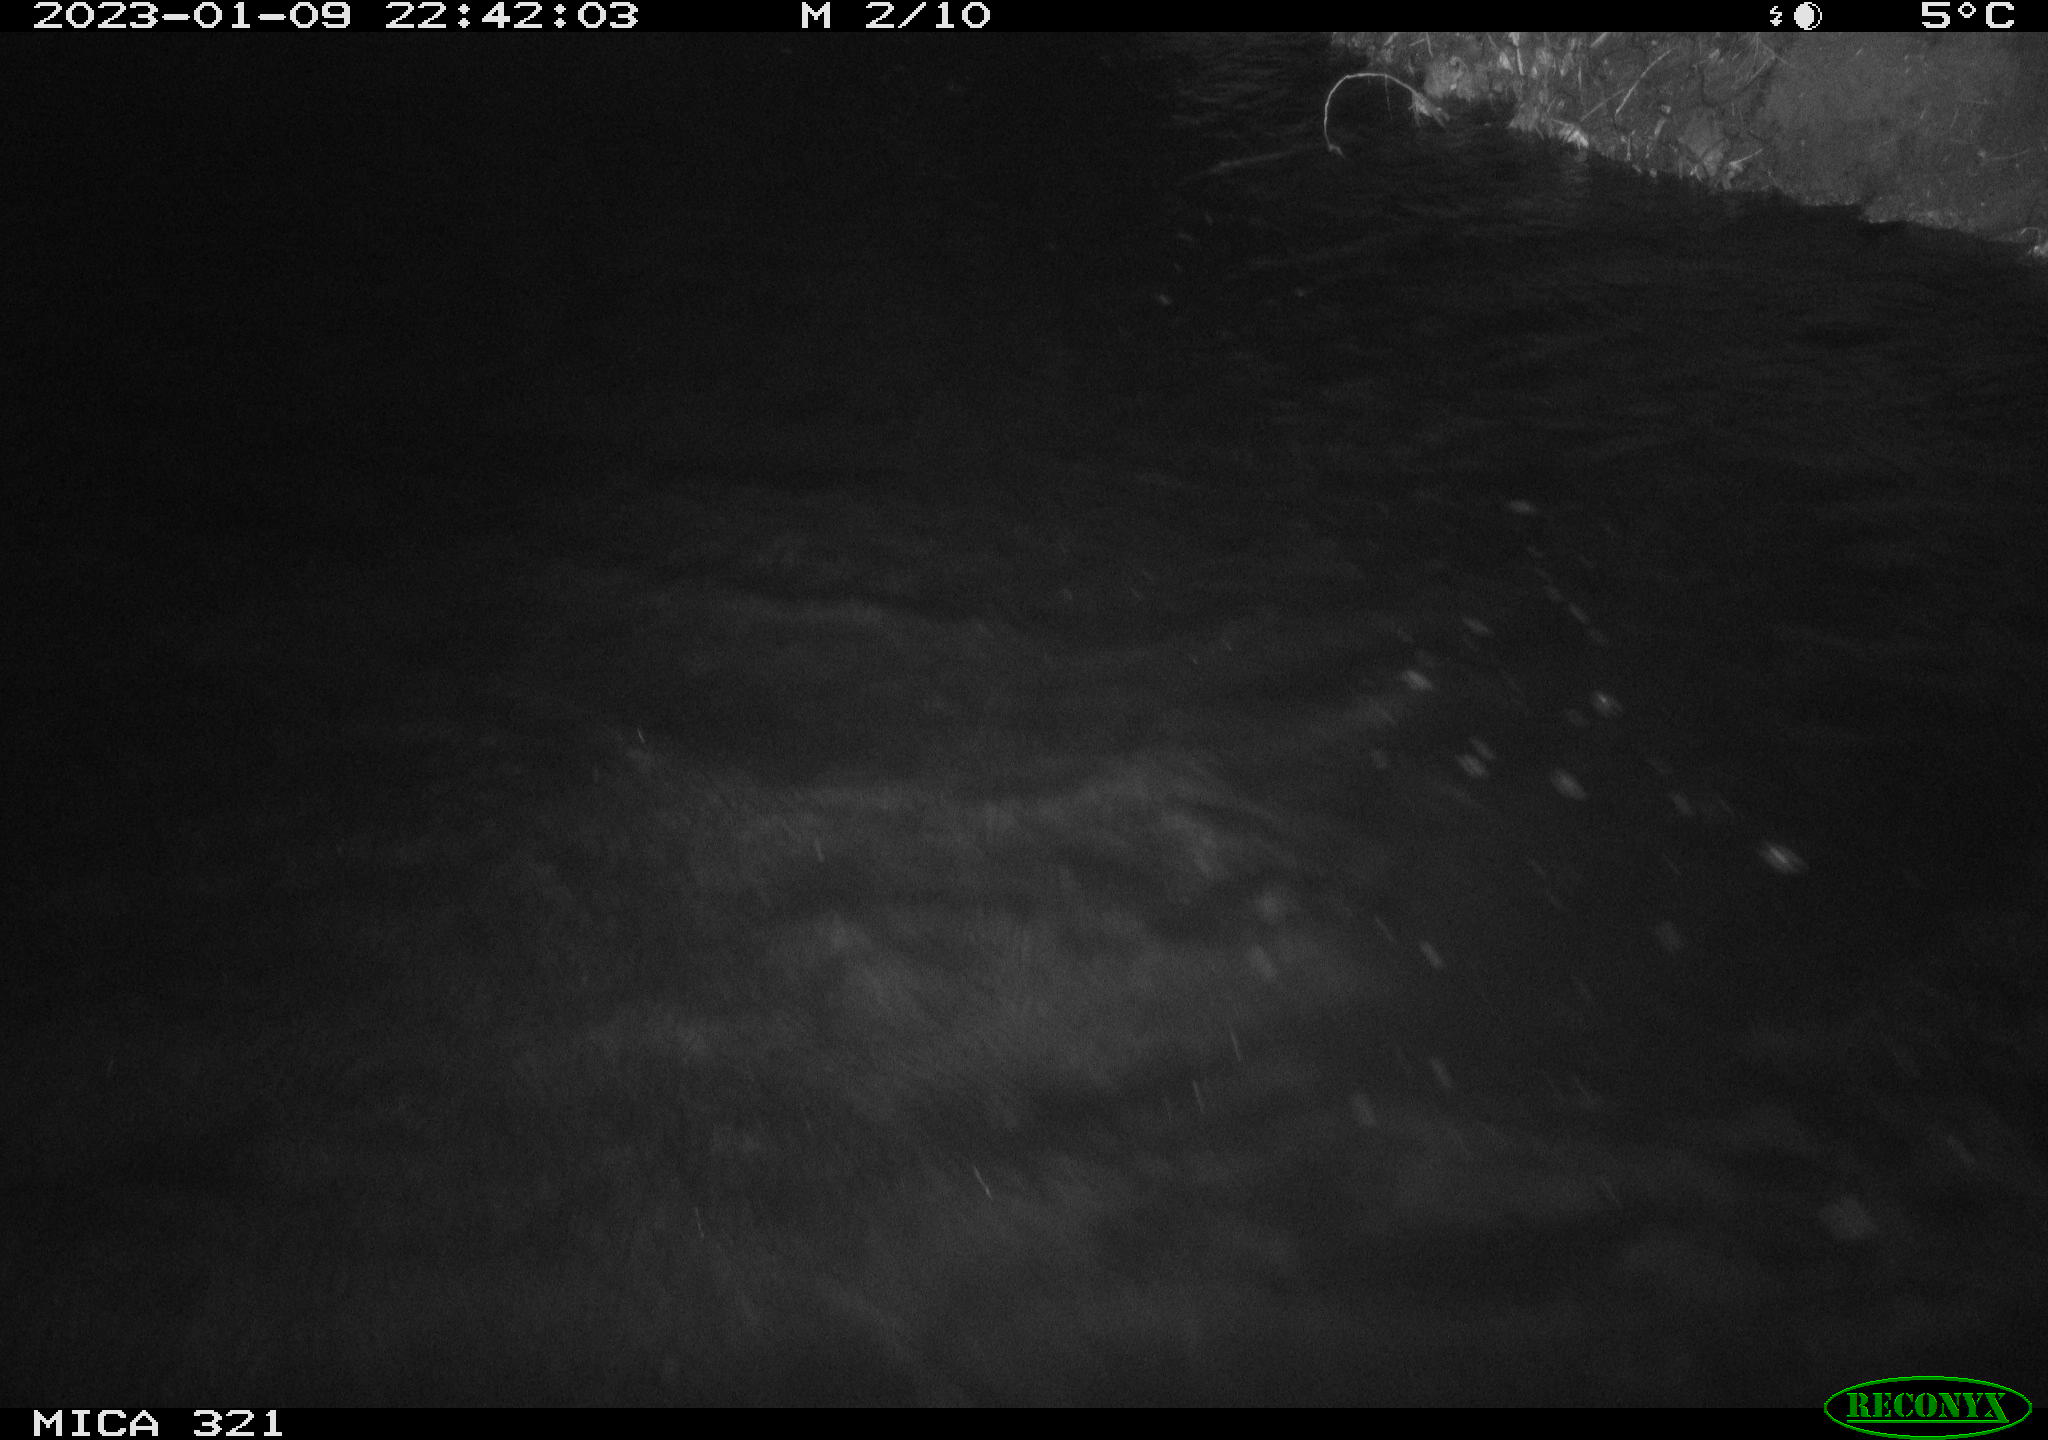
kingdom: Animalia
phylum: Chordata
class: Aves
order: Anseriformes
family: Anatidae
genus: Anas
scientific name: Anas
